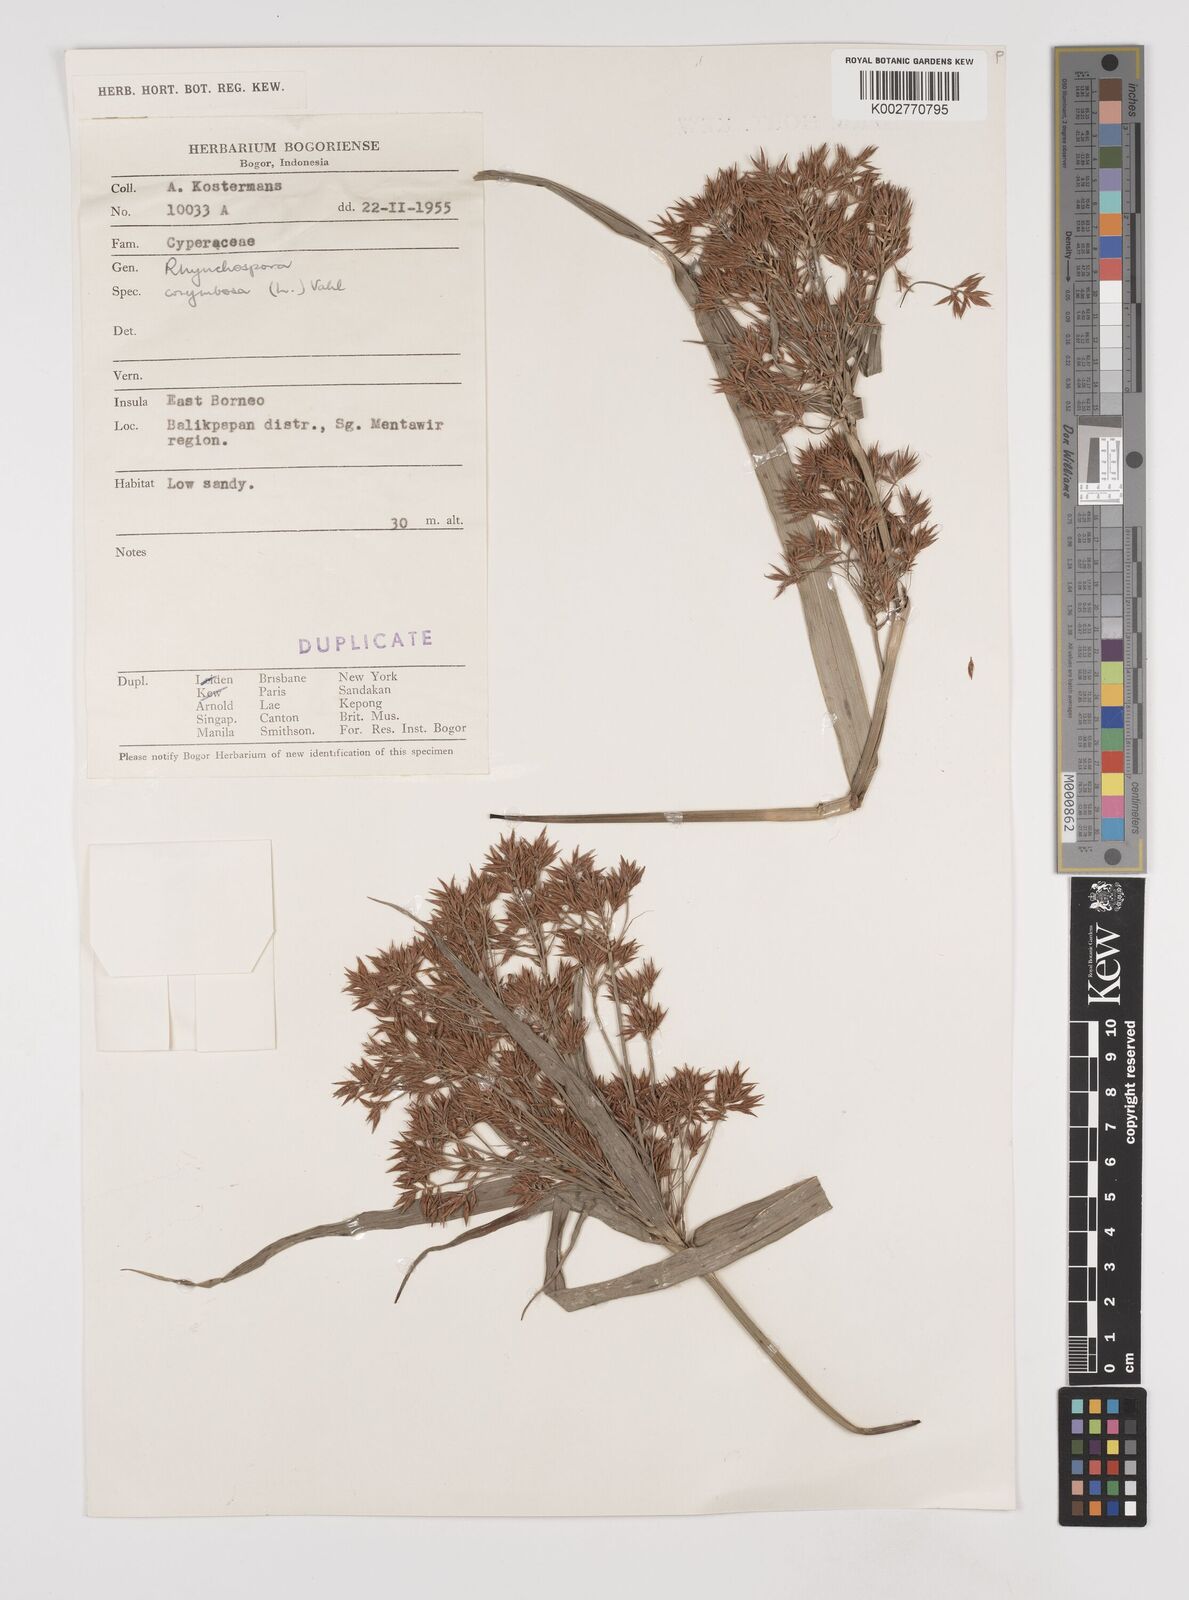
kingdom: Plantae
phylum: Tracheophyta
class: Liliopsida
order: Poales
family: Cyperaceae
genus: Rhynchospora
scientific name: Rhynchospora corymbosa
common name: Golden beak sedge
